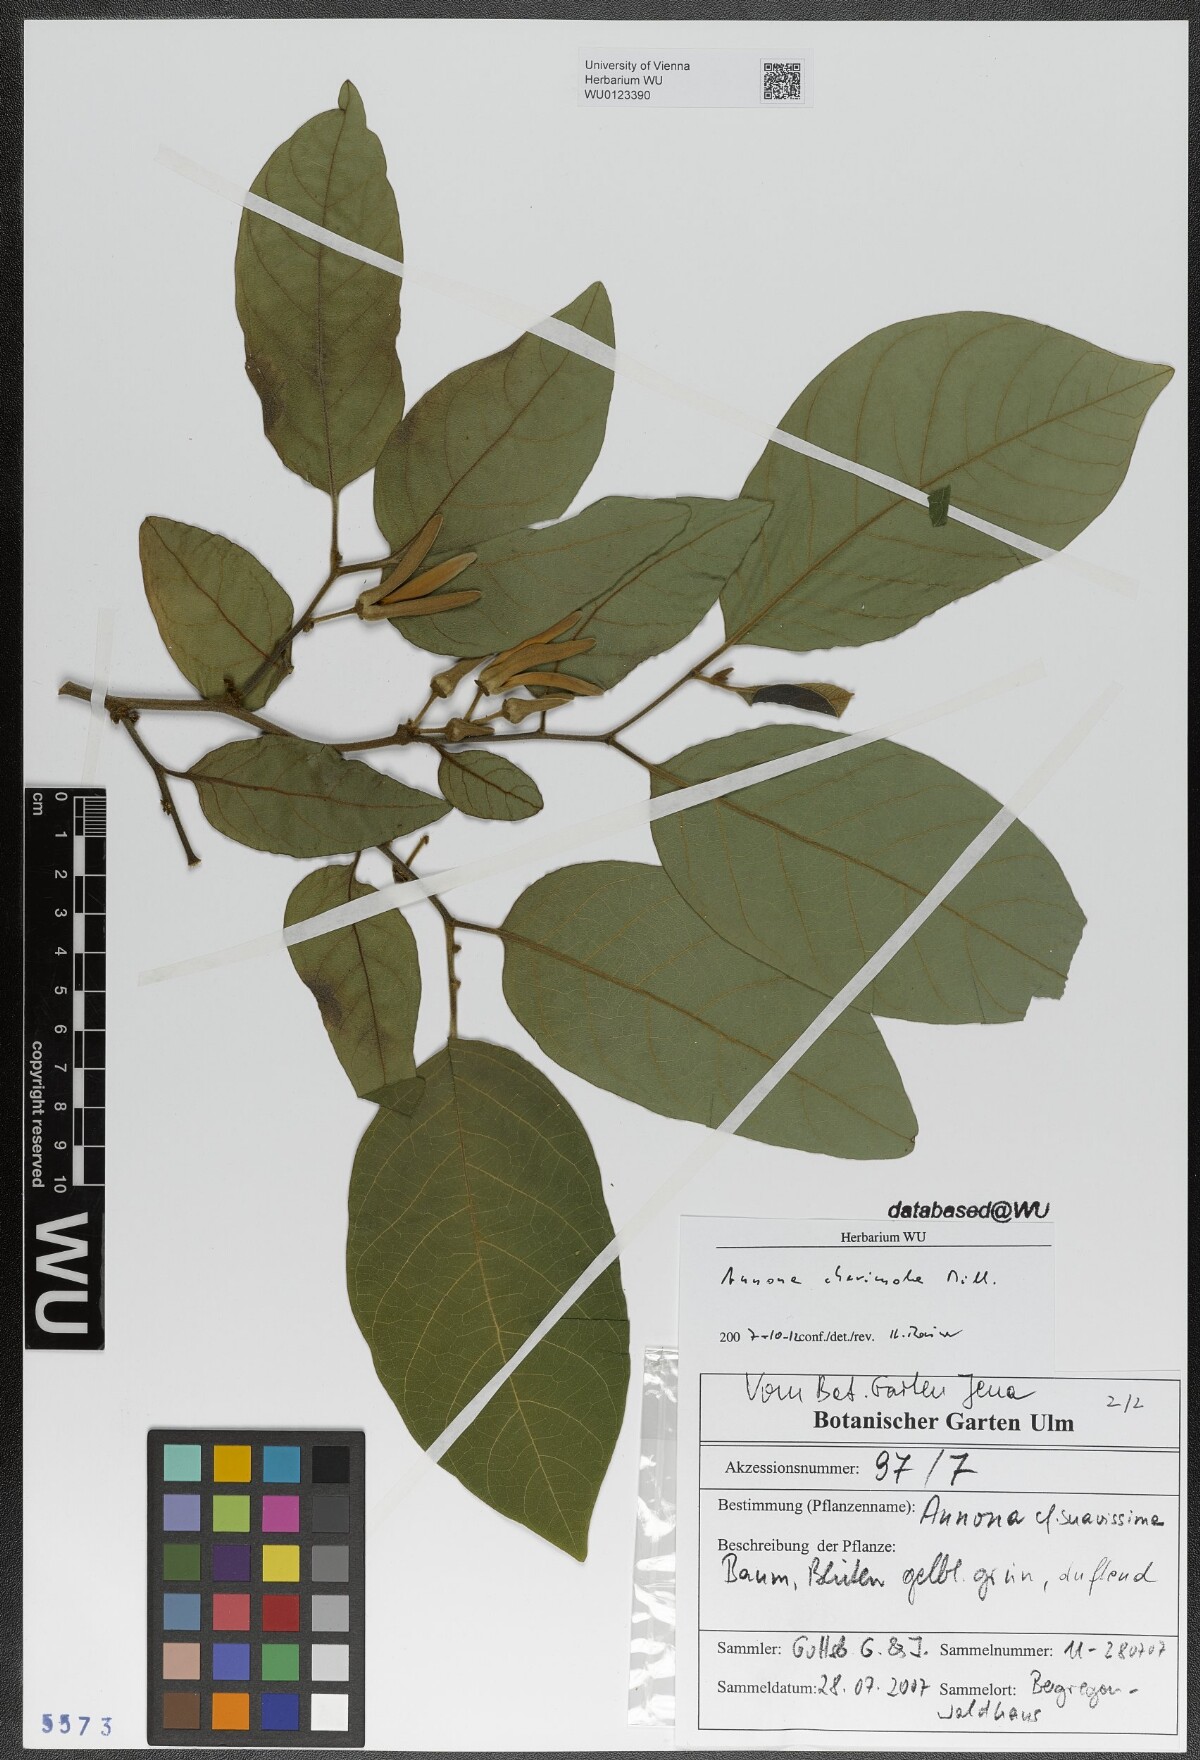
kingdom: Plantae
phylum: Tracheophyta
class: Magnoliopsida
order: Magnoliales
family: Annonaceae
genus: Annona
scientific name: Annona cherimola
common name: Cherimoya
